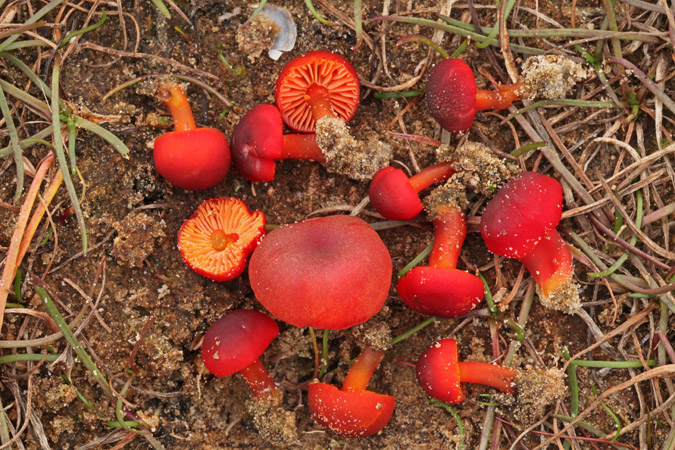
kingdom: Fungi
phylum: Basidiomycota
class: Agaricomycetes
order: Agaricales
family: Hygrophoraceae
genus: Hygrocybe
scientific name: Hygrocybe phaeococcinea
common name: sortdugget vokshat
